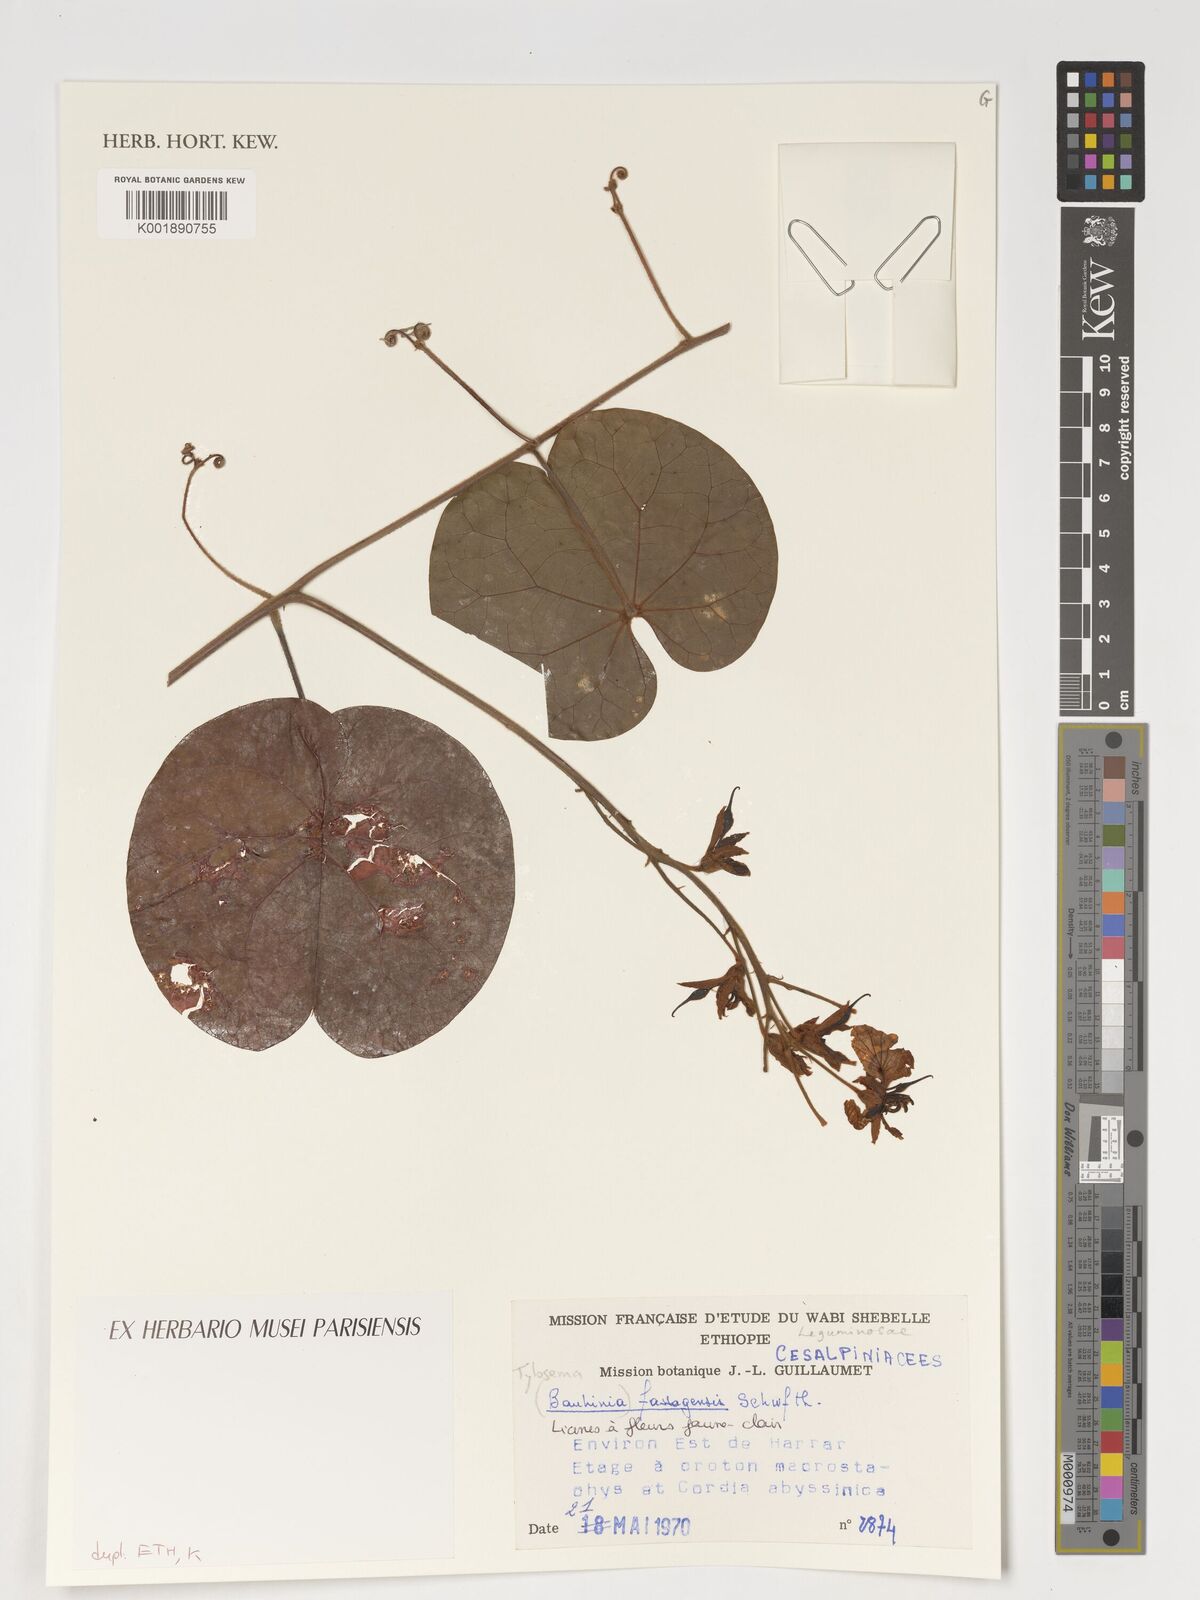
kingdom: Plantae
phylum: Tracheophyta
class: Magnoliopsida
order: Fabales
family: Fabaceae
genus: Tylosema
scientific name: Tylosema fassoglense
